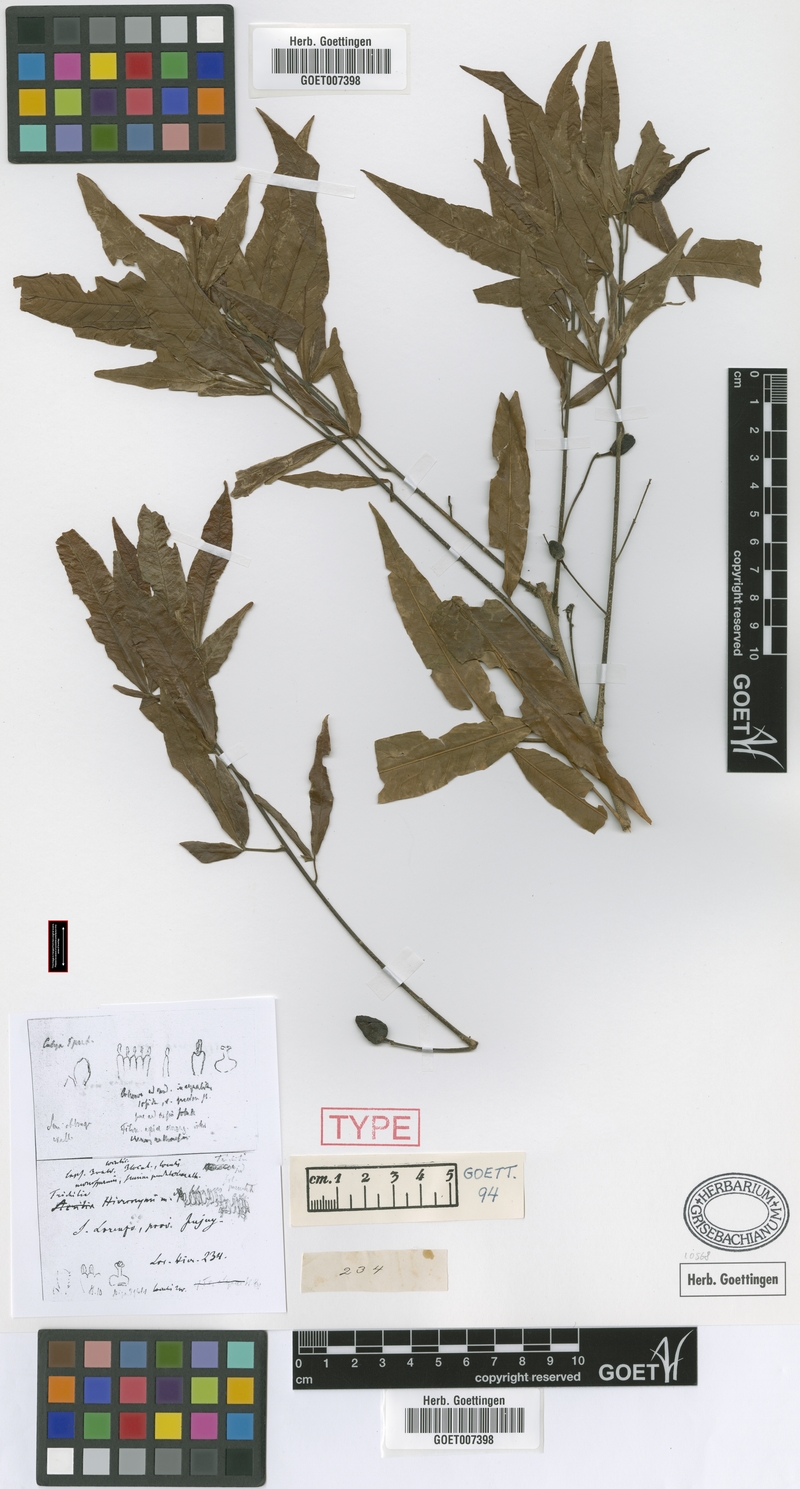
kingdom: Plantae
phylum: Tracheophyta
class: Magnoliopsida
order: Sapindales
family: Meliaceae
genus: Trichilia
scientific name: Trichilia claussenii
